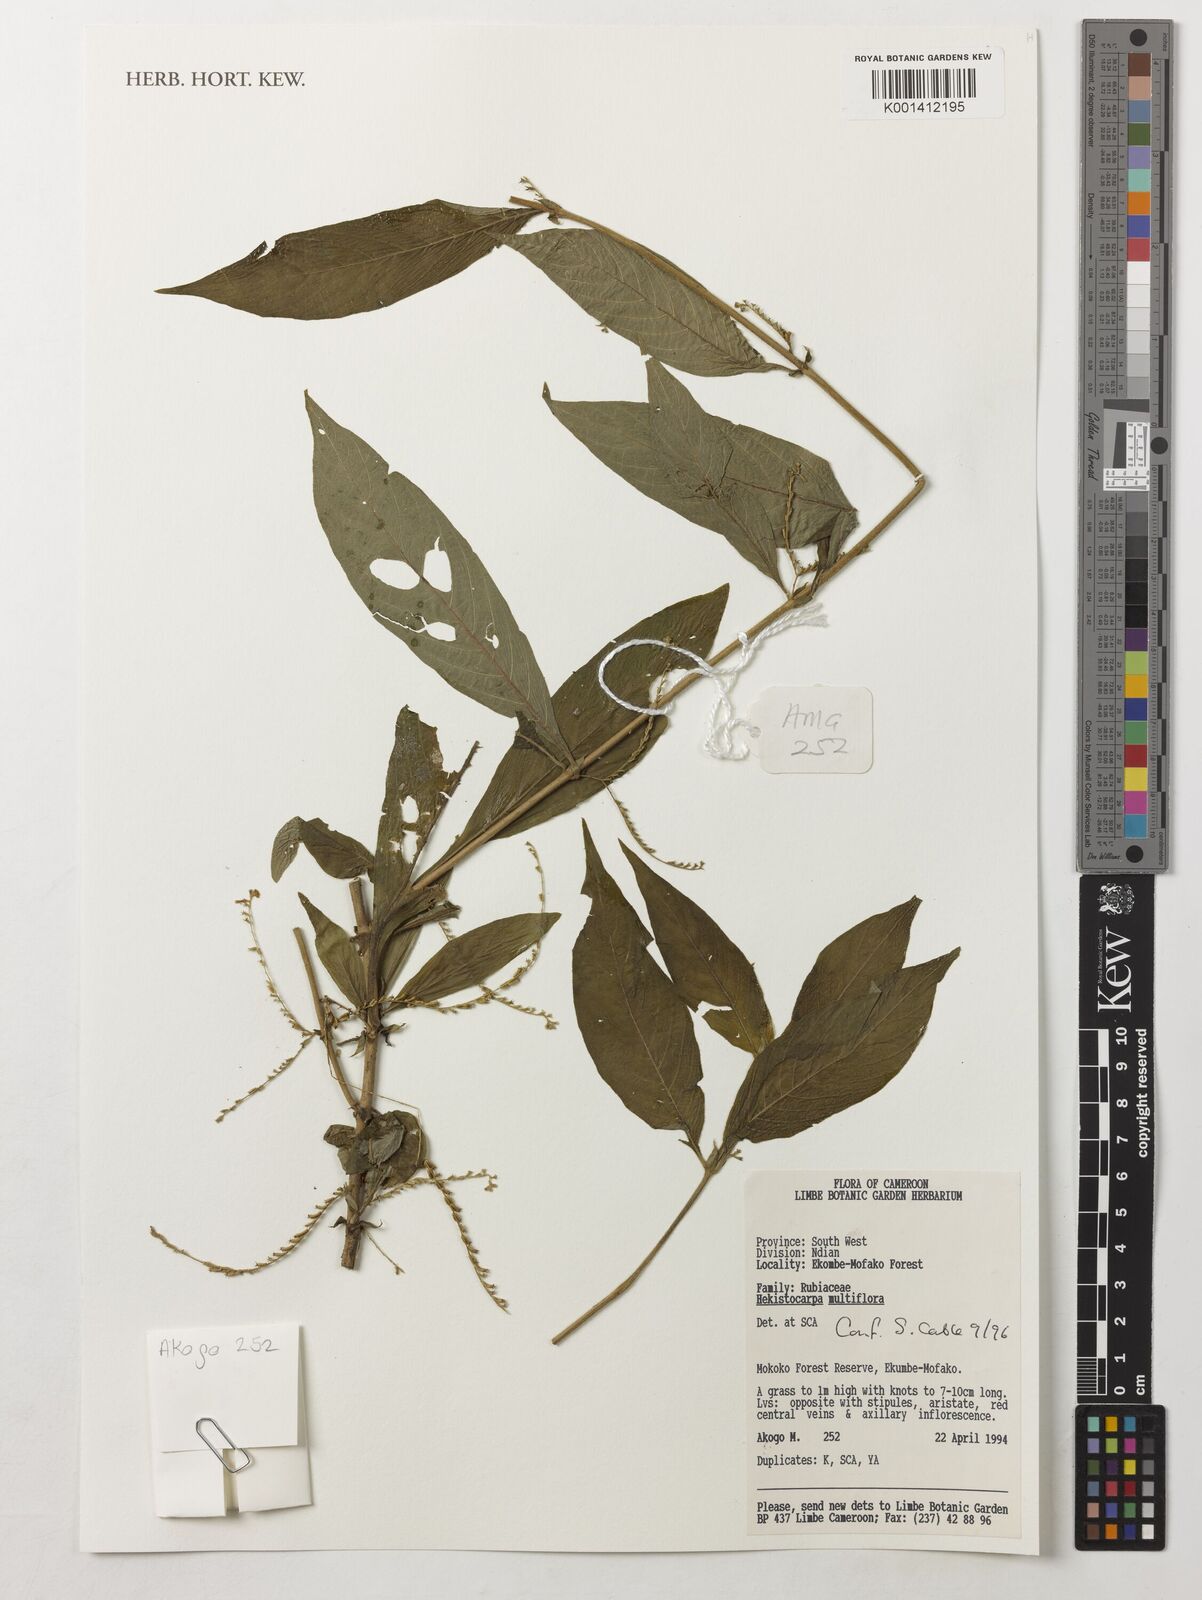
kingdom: Plantae
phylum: Tracheophyta
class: Magnoliopsida
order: Gentianales
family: Rubiaceae
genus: Hekistocarpa
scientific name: Hekistocarpa
